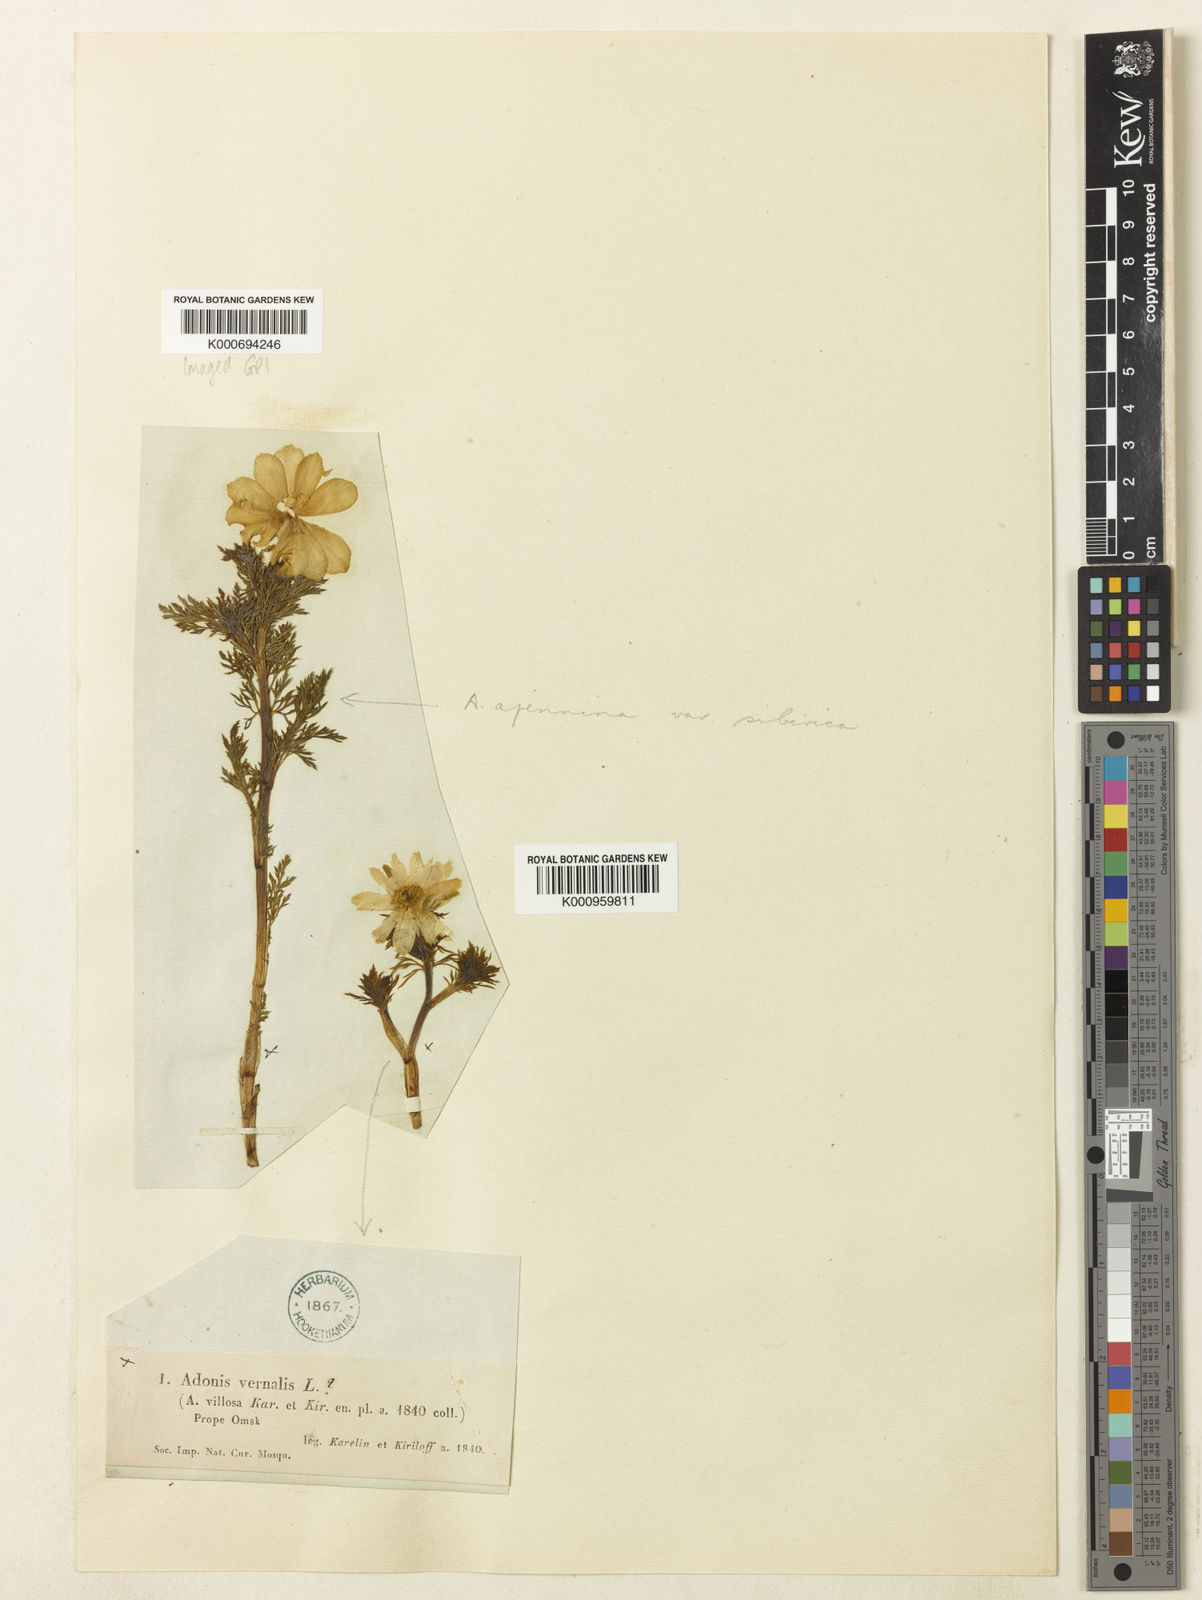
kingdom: Plantae
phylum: Tracheophyta
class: Magnoliopsida
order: Ranunculales
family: Ranunculaceae
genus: Adonis
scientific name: Adonis villosa
